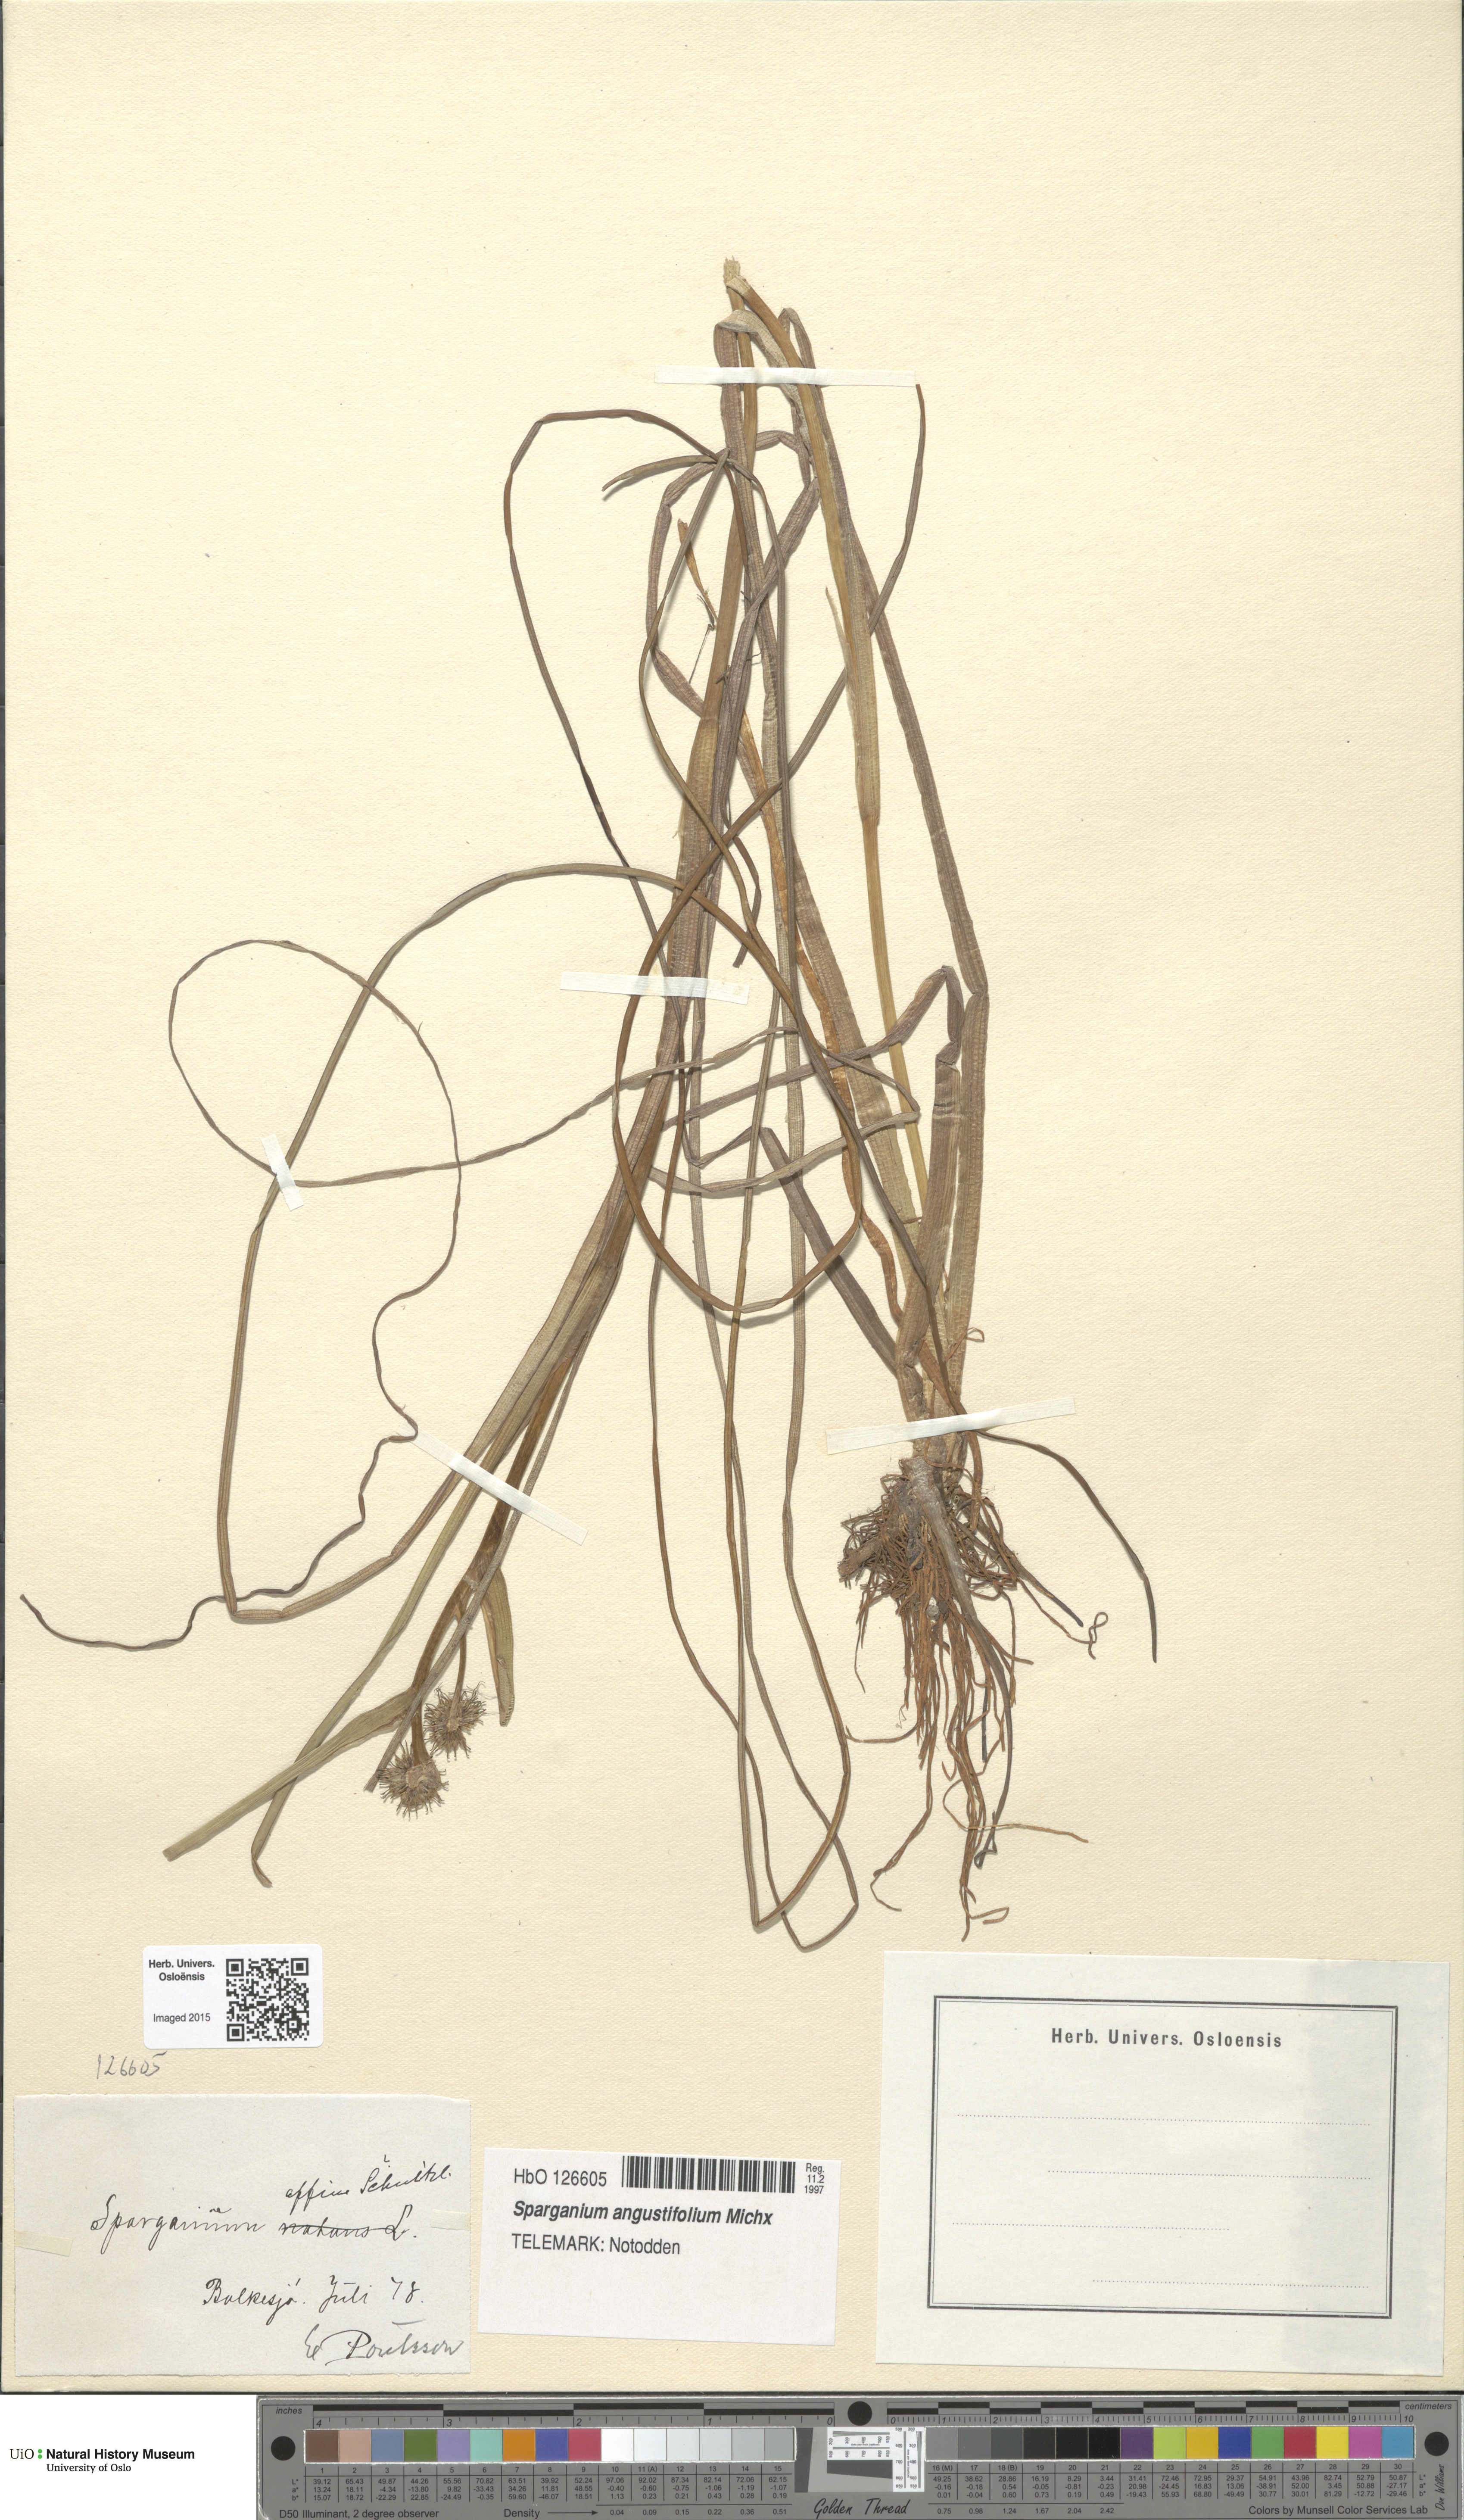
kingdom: Plantae
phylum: Tracheophyta
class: Liliopsida
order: Poales
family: Typhaceae
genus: Sparganium
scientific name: Sparganium angustifolium
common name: Floating bur-reed
